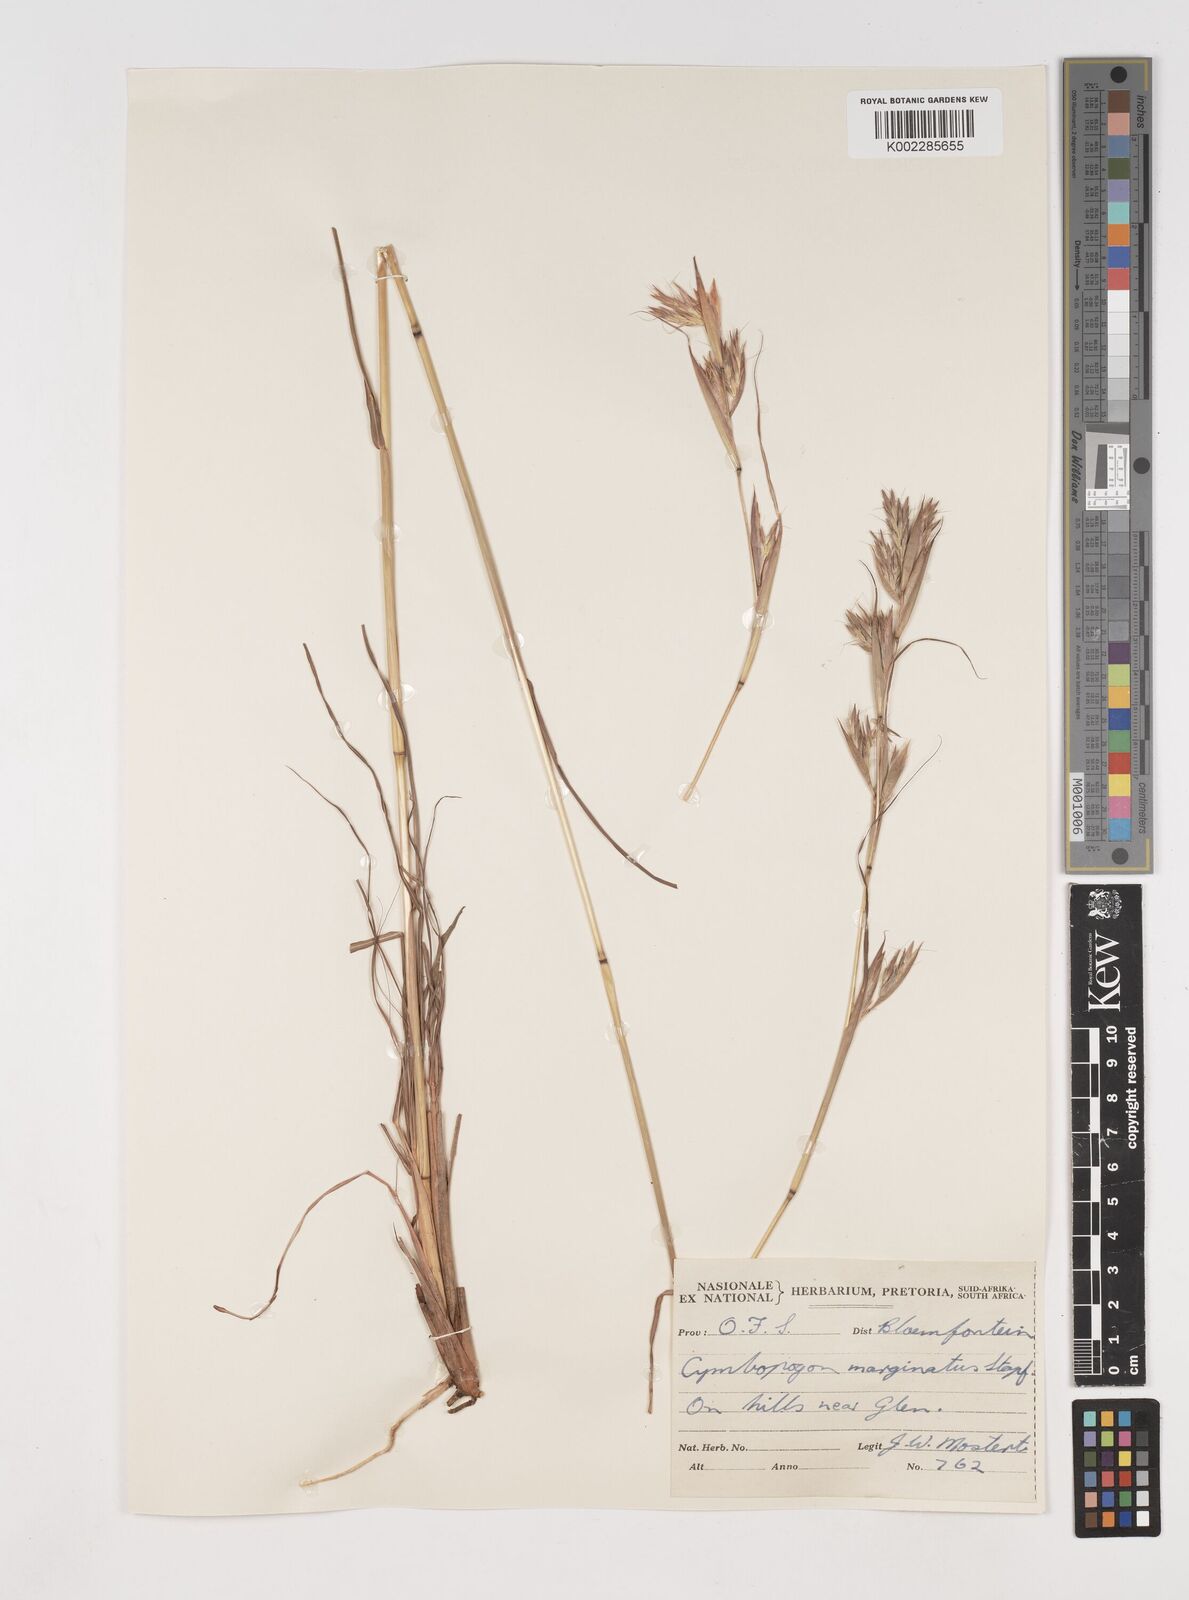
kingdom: Plantae
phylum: Tracheophyta
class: Liliopsida
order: Poales
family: Poaceae
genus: Cymbopogon
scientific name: Cymbopogon marginatus
